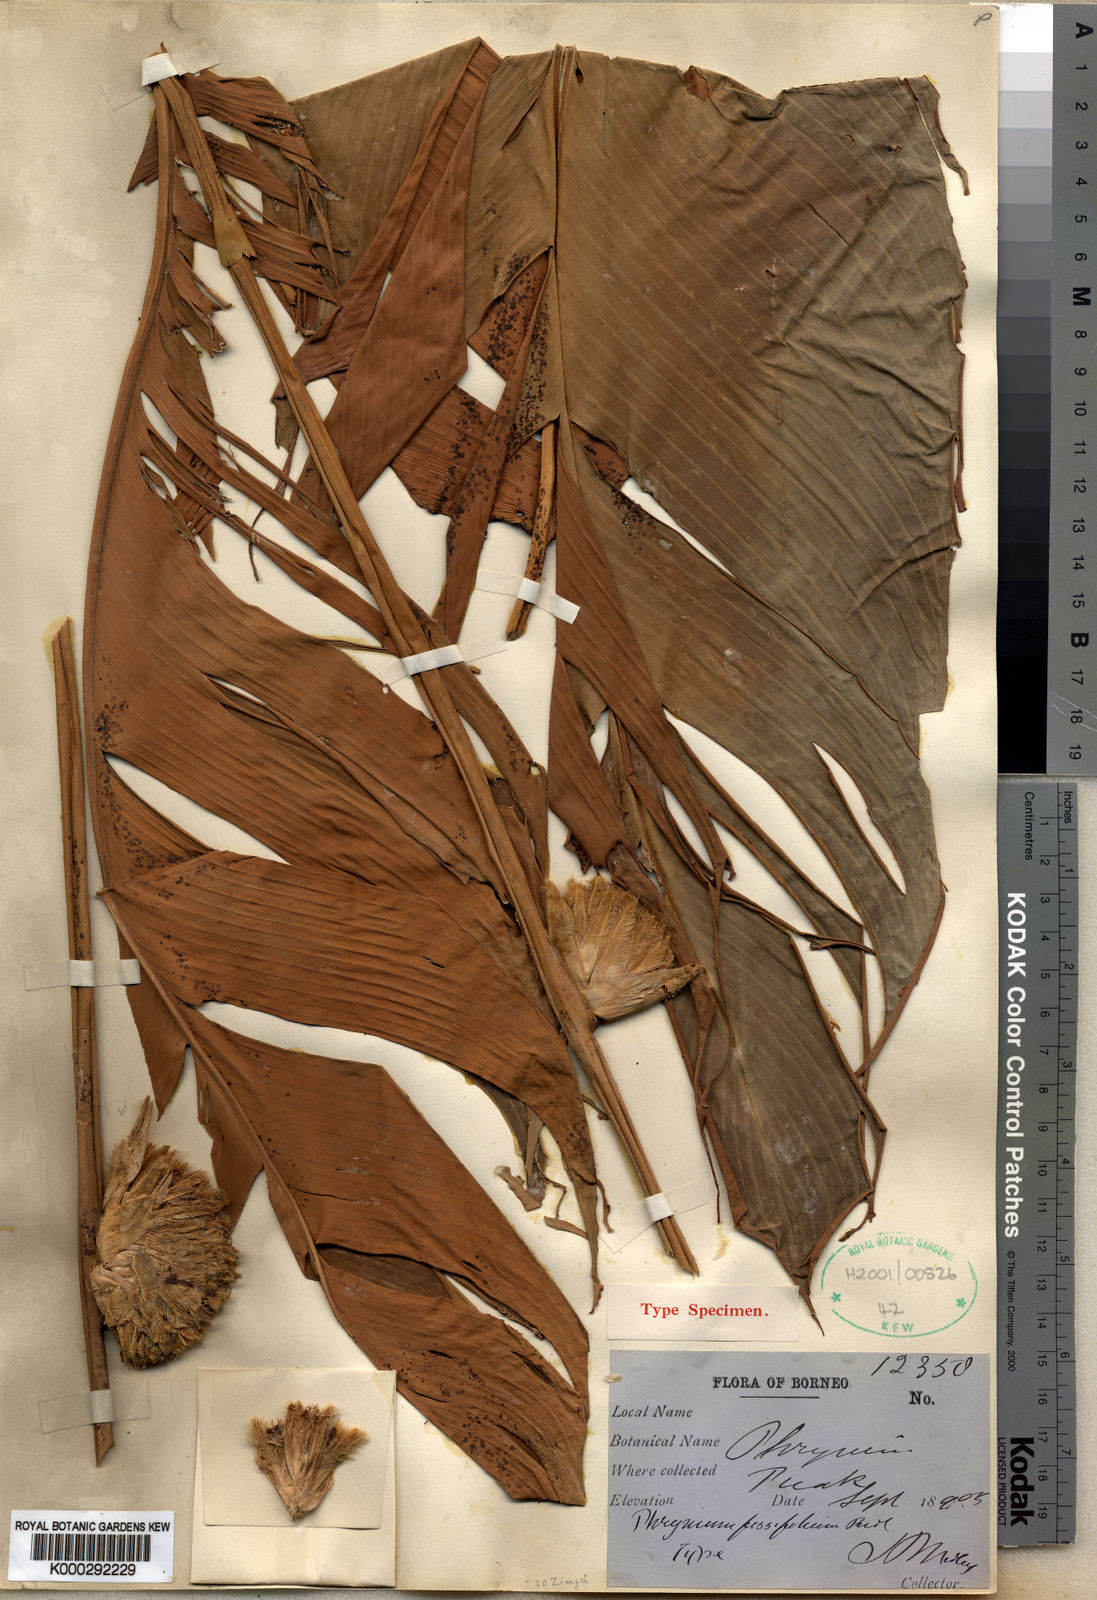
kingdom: Plantae
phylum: Tracheophyta
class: Liliopsida
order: Zingiberales
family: Marantaceae
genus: Phrynium
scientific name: Phrynium fissifolium
